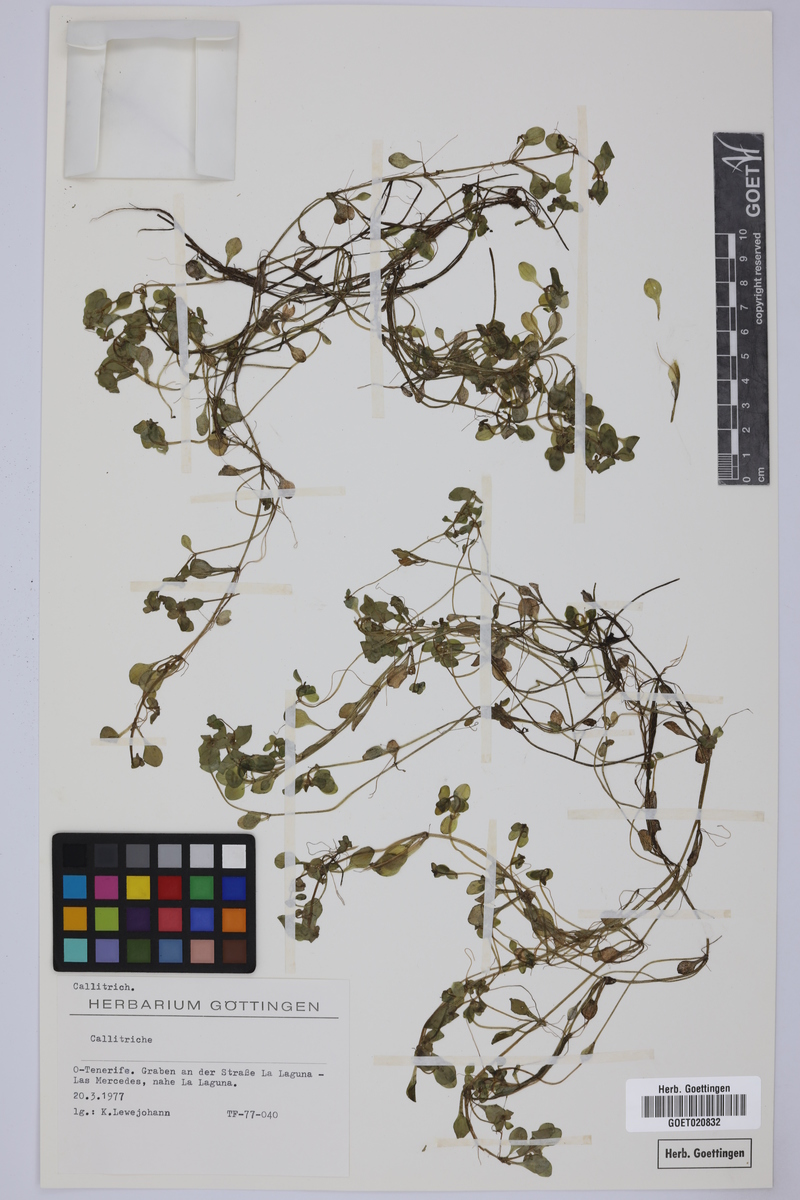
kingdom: Plantae
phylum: Tracheophyta
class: Magnoliopsida
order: Lamiales
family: Plantaginaceae
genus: Callitriche
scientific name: Callitriche
